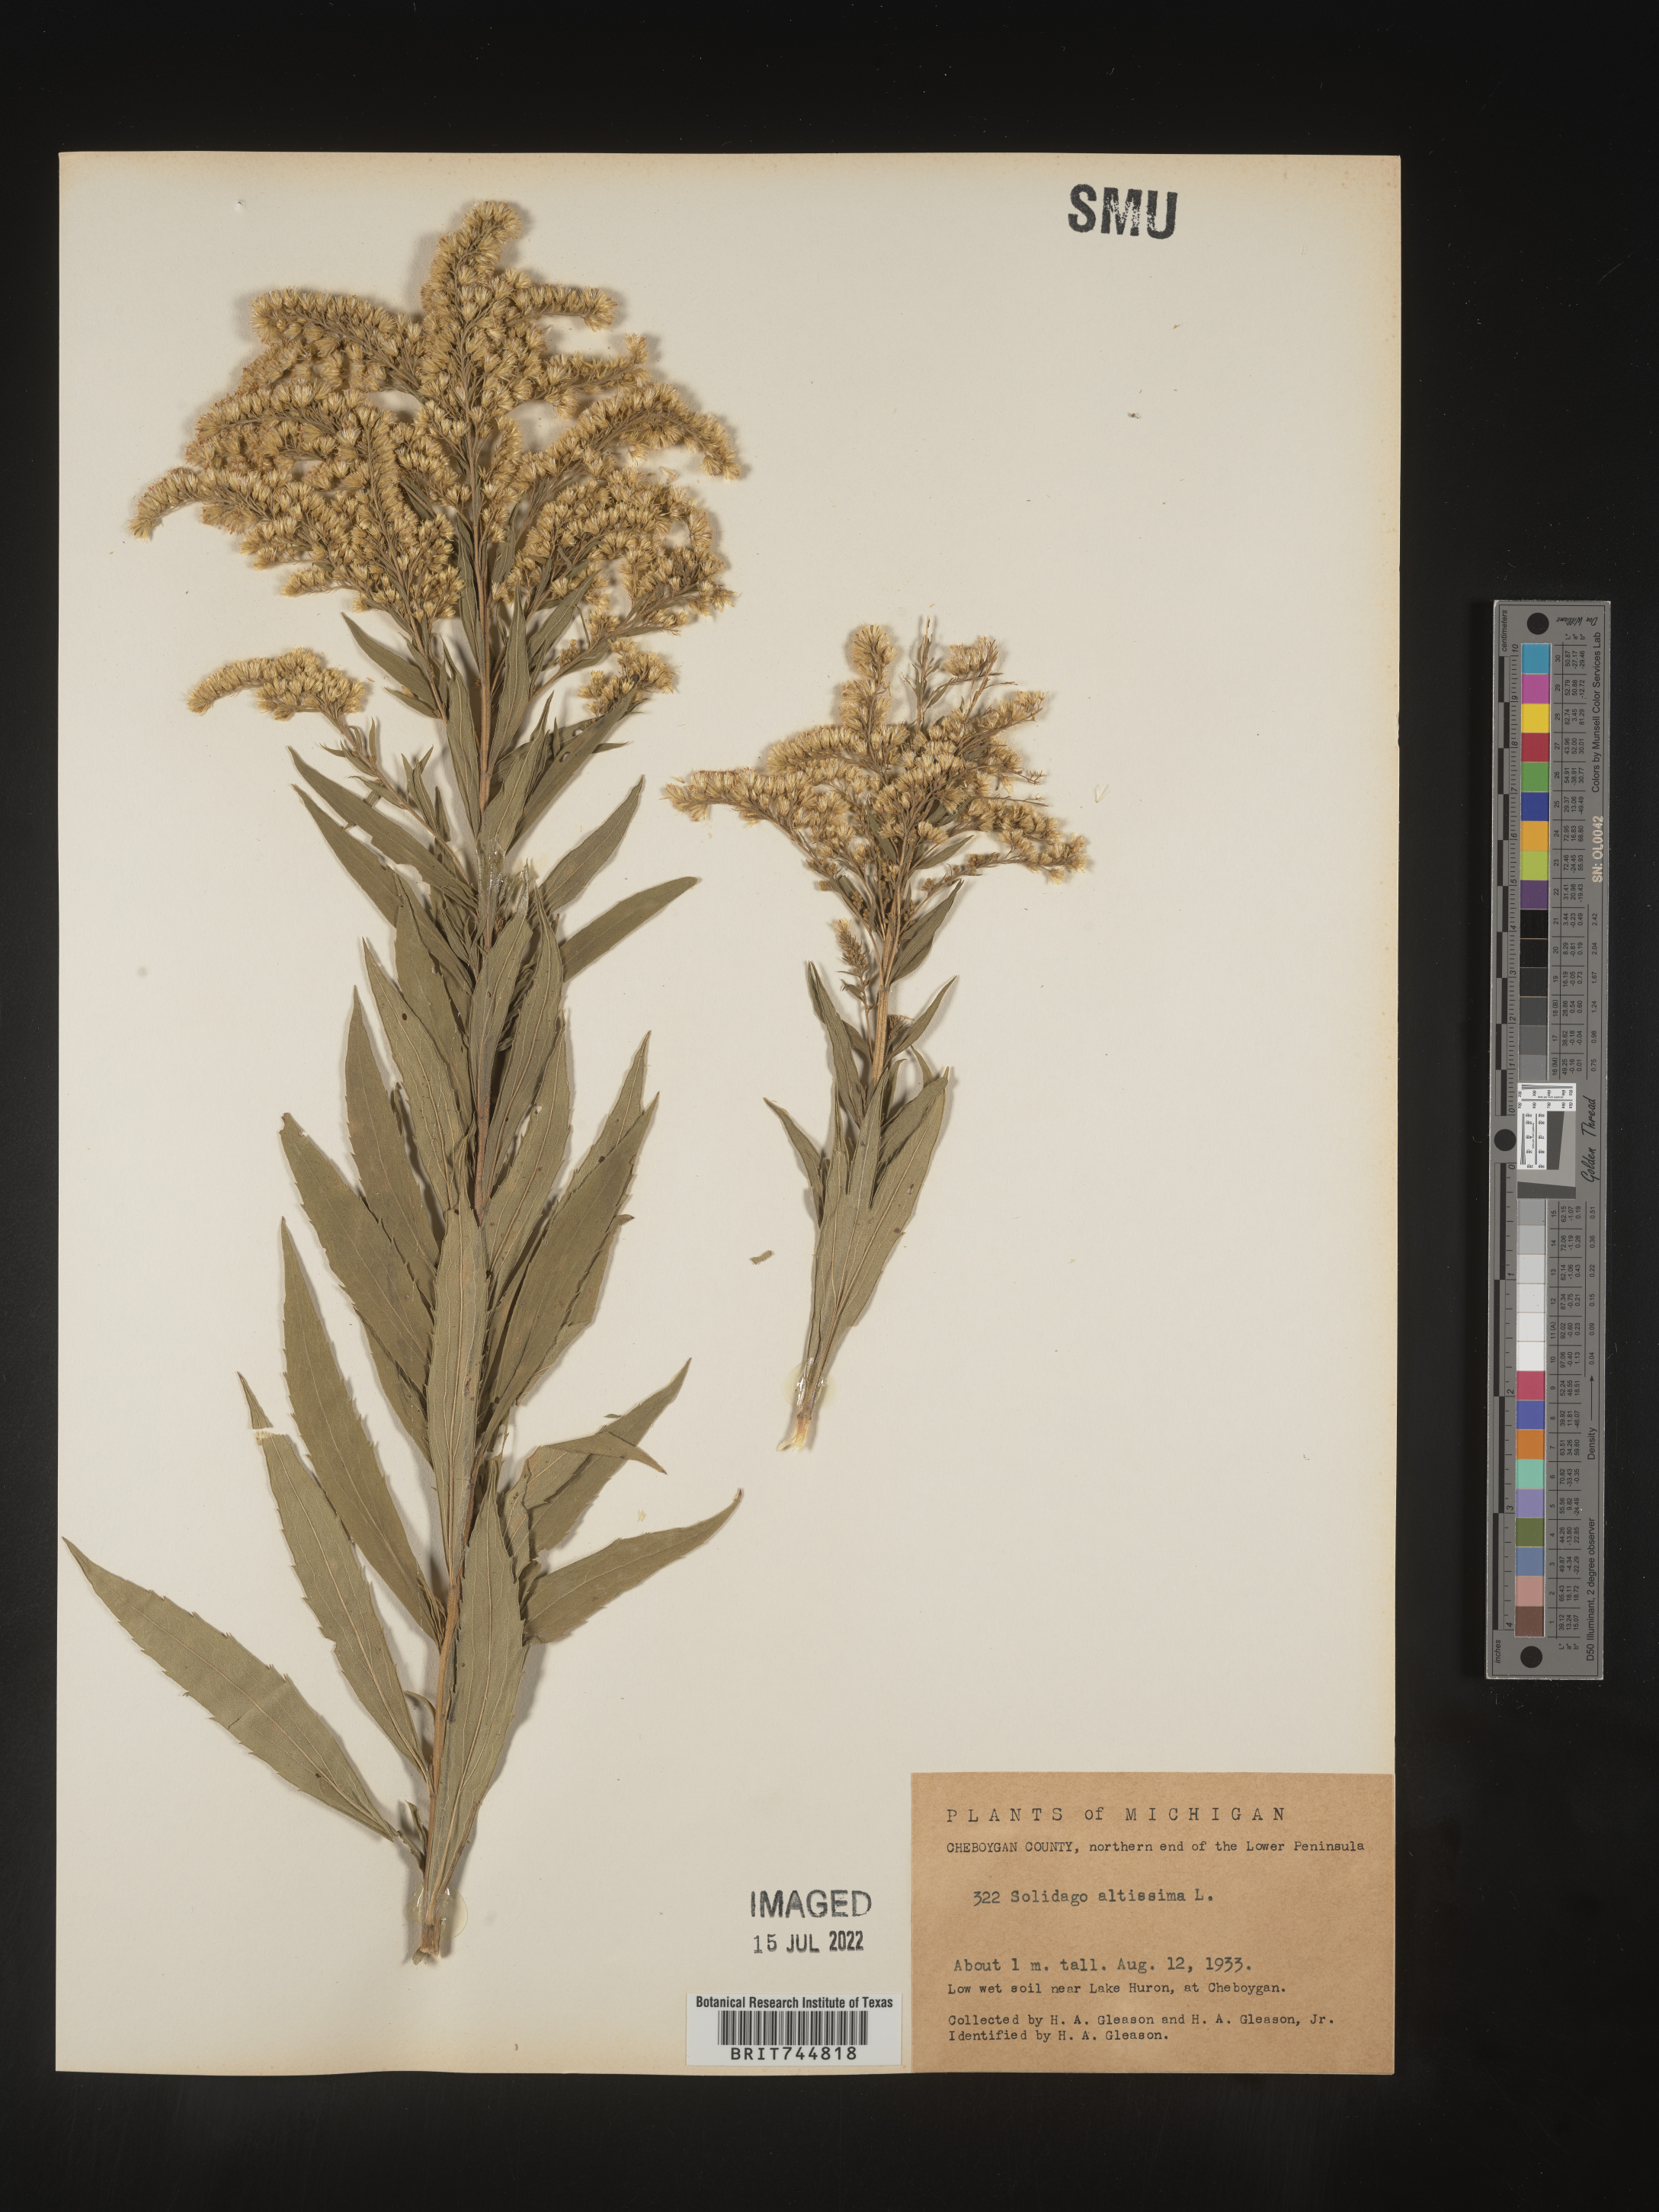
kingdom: Plantae
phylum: Tracheophyta
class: Magnoliopsida
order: Asterales
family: Asteraceae
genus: Solidago
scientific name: Solidago canadensis
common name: Canada goldenrod
